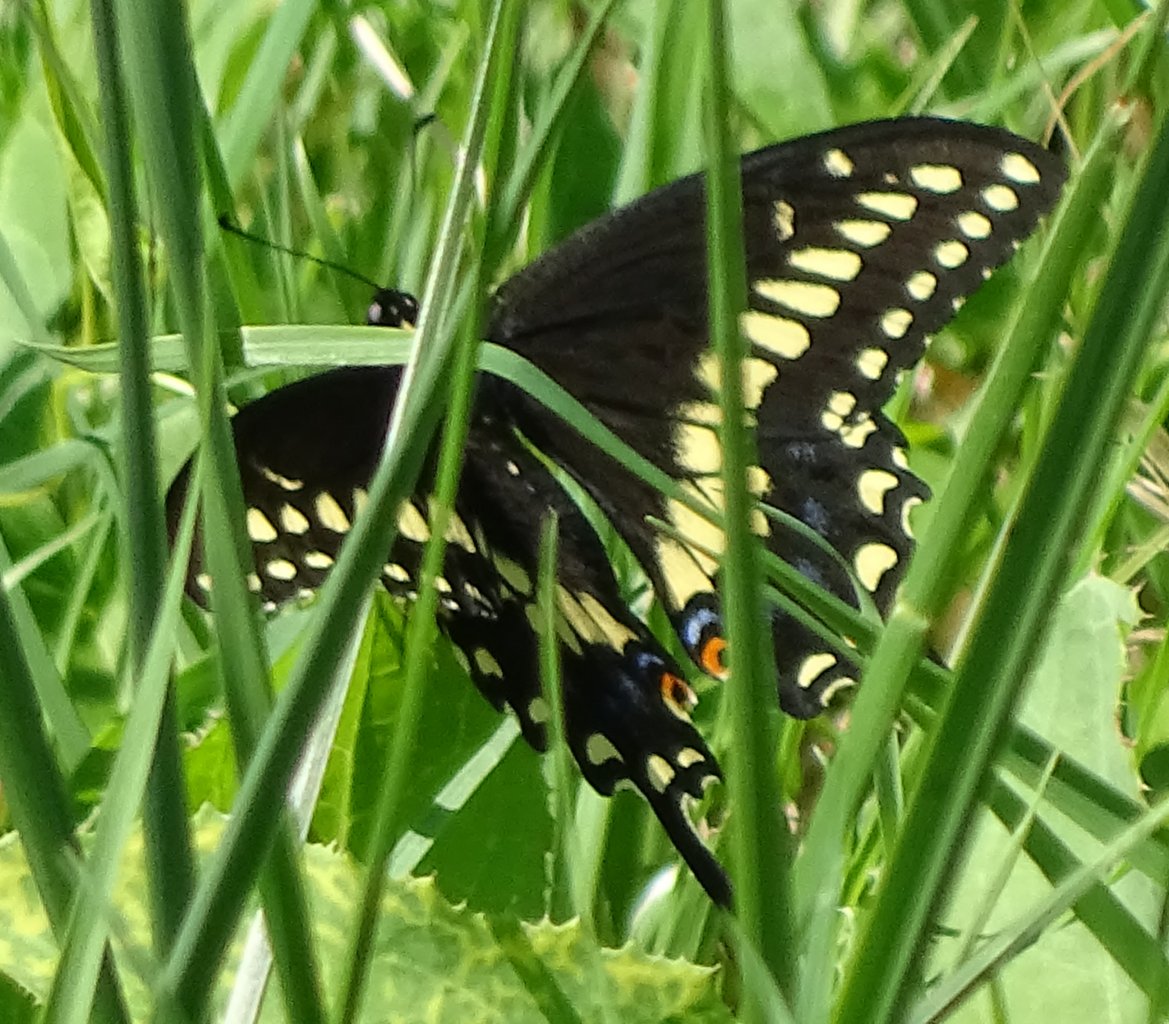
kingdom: Animalia
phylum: Arthropoda
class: Insecta
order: Lepidoptera
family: Papilionidae
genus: Papilio
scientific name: Papilio polyxenes
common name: Black Swallowtail
